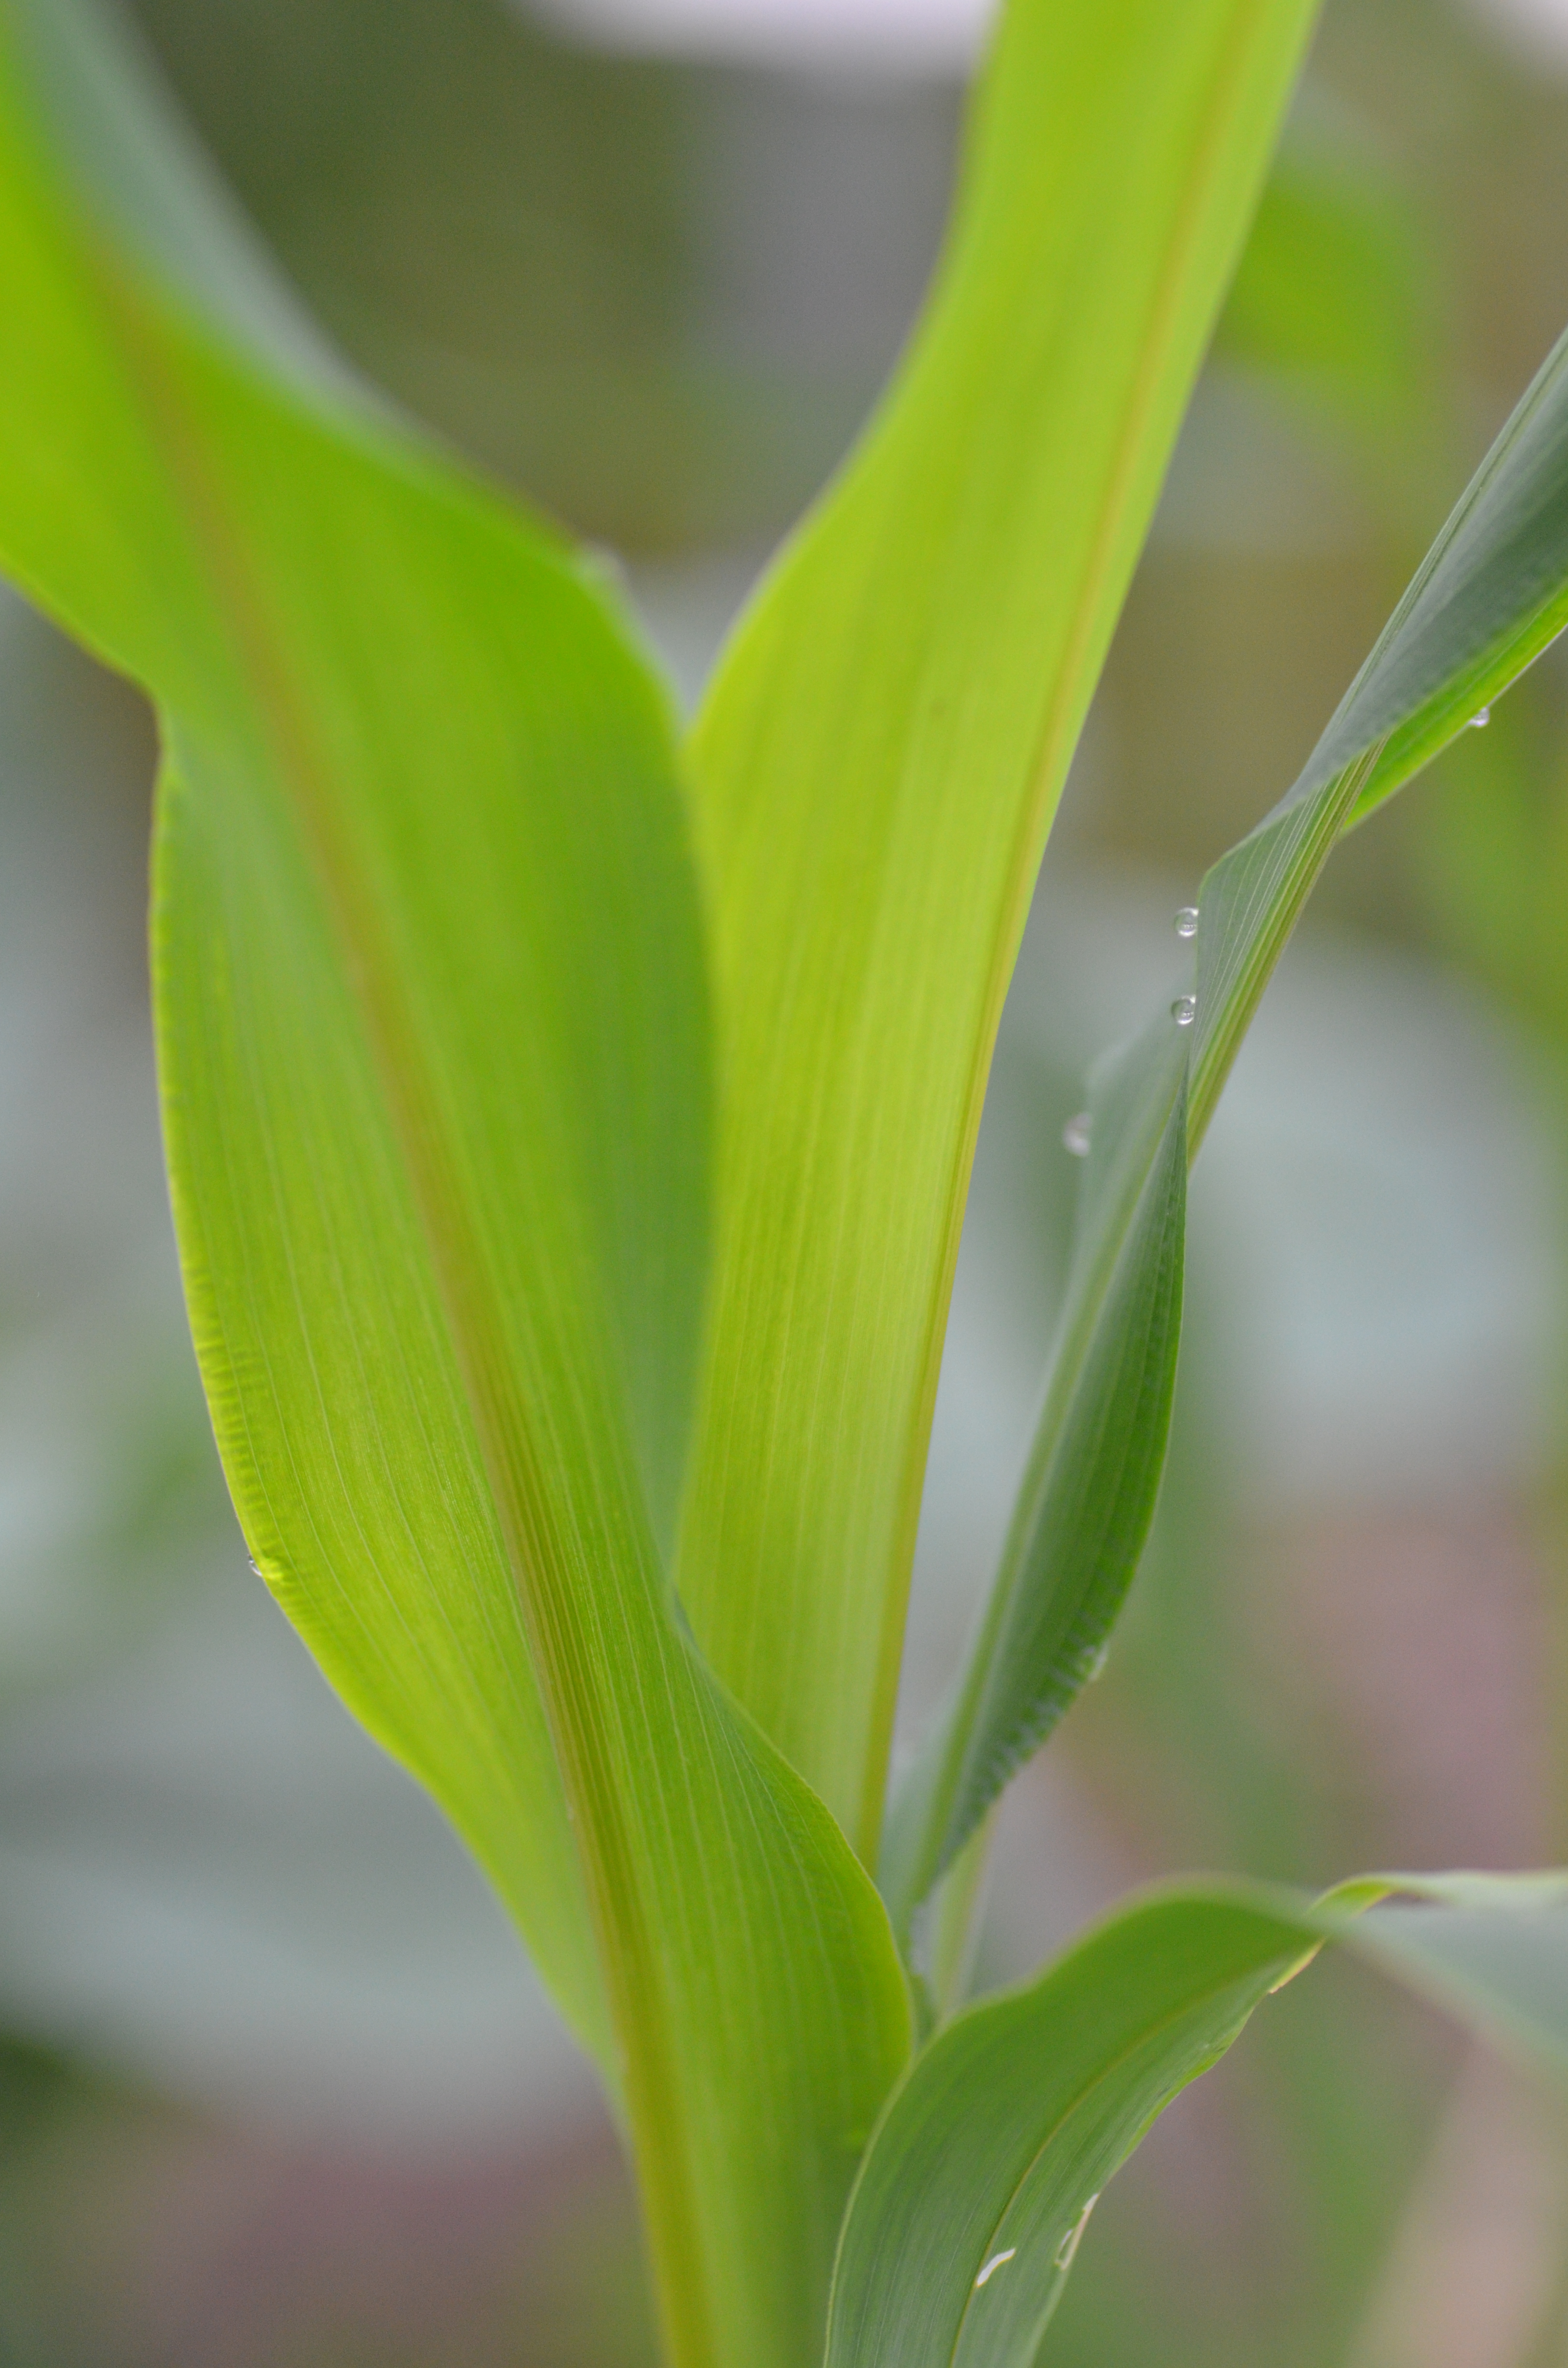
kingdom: Plantae
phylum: Tracheophyta
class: Liliopsida
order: Poales
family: Poaceae
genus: Sorghum
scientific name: Sorghum bicolor
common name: Sorghum
